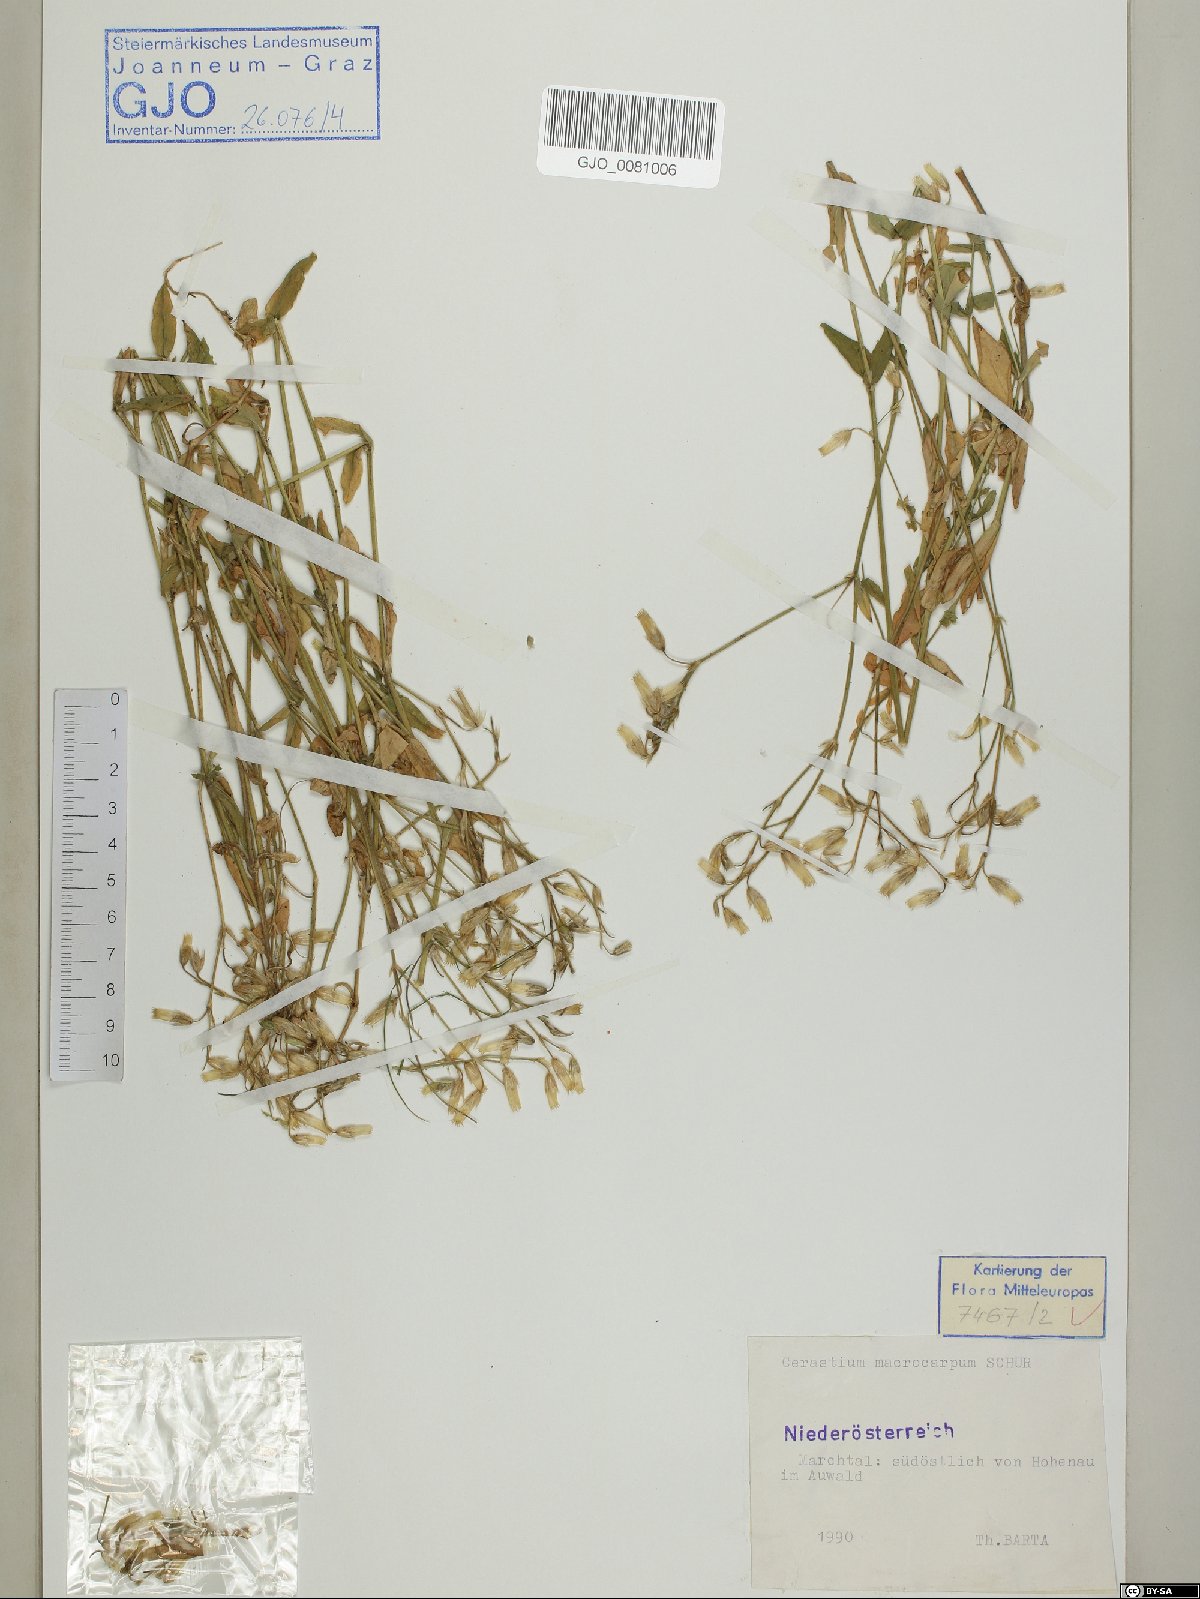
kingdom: Plantae
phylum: Tracheophyta
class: Magnoliopsida
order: Caryophyllales
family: Caryophyllaceae
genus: Cerastium
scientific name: Cerastium lucorum
